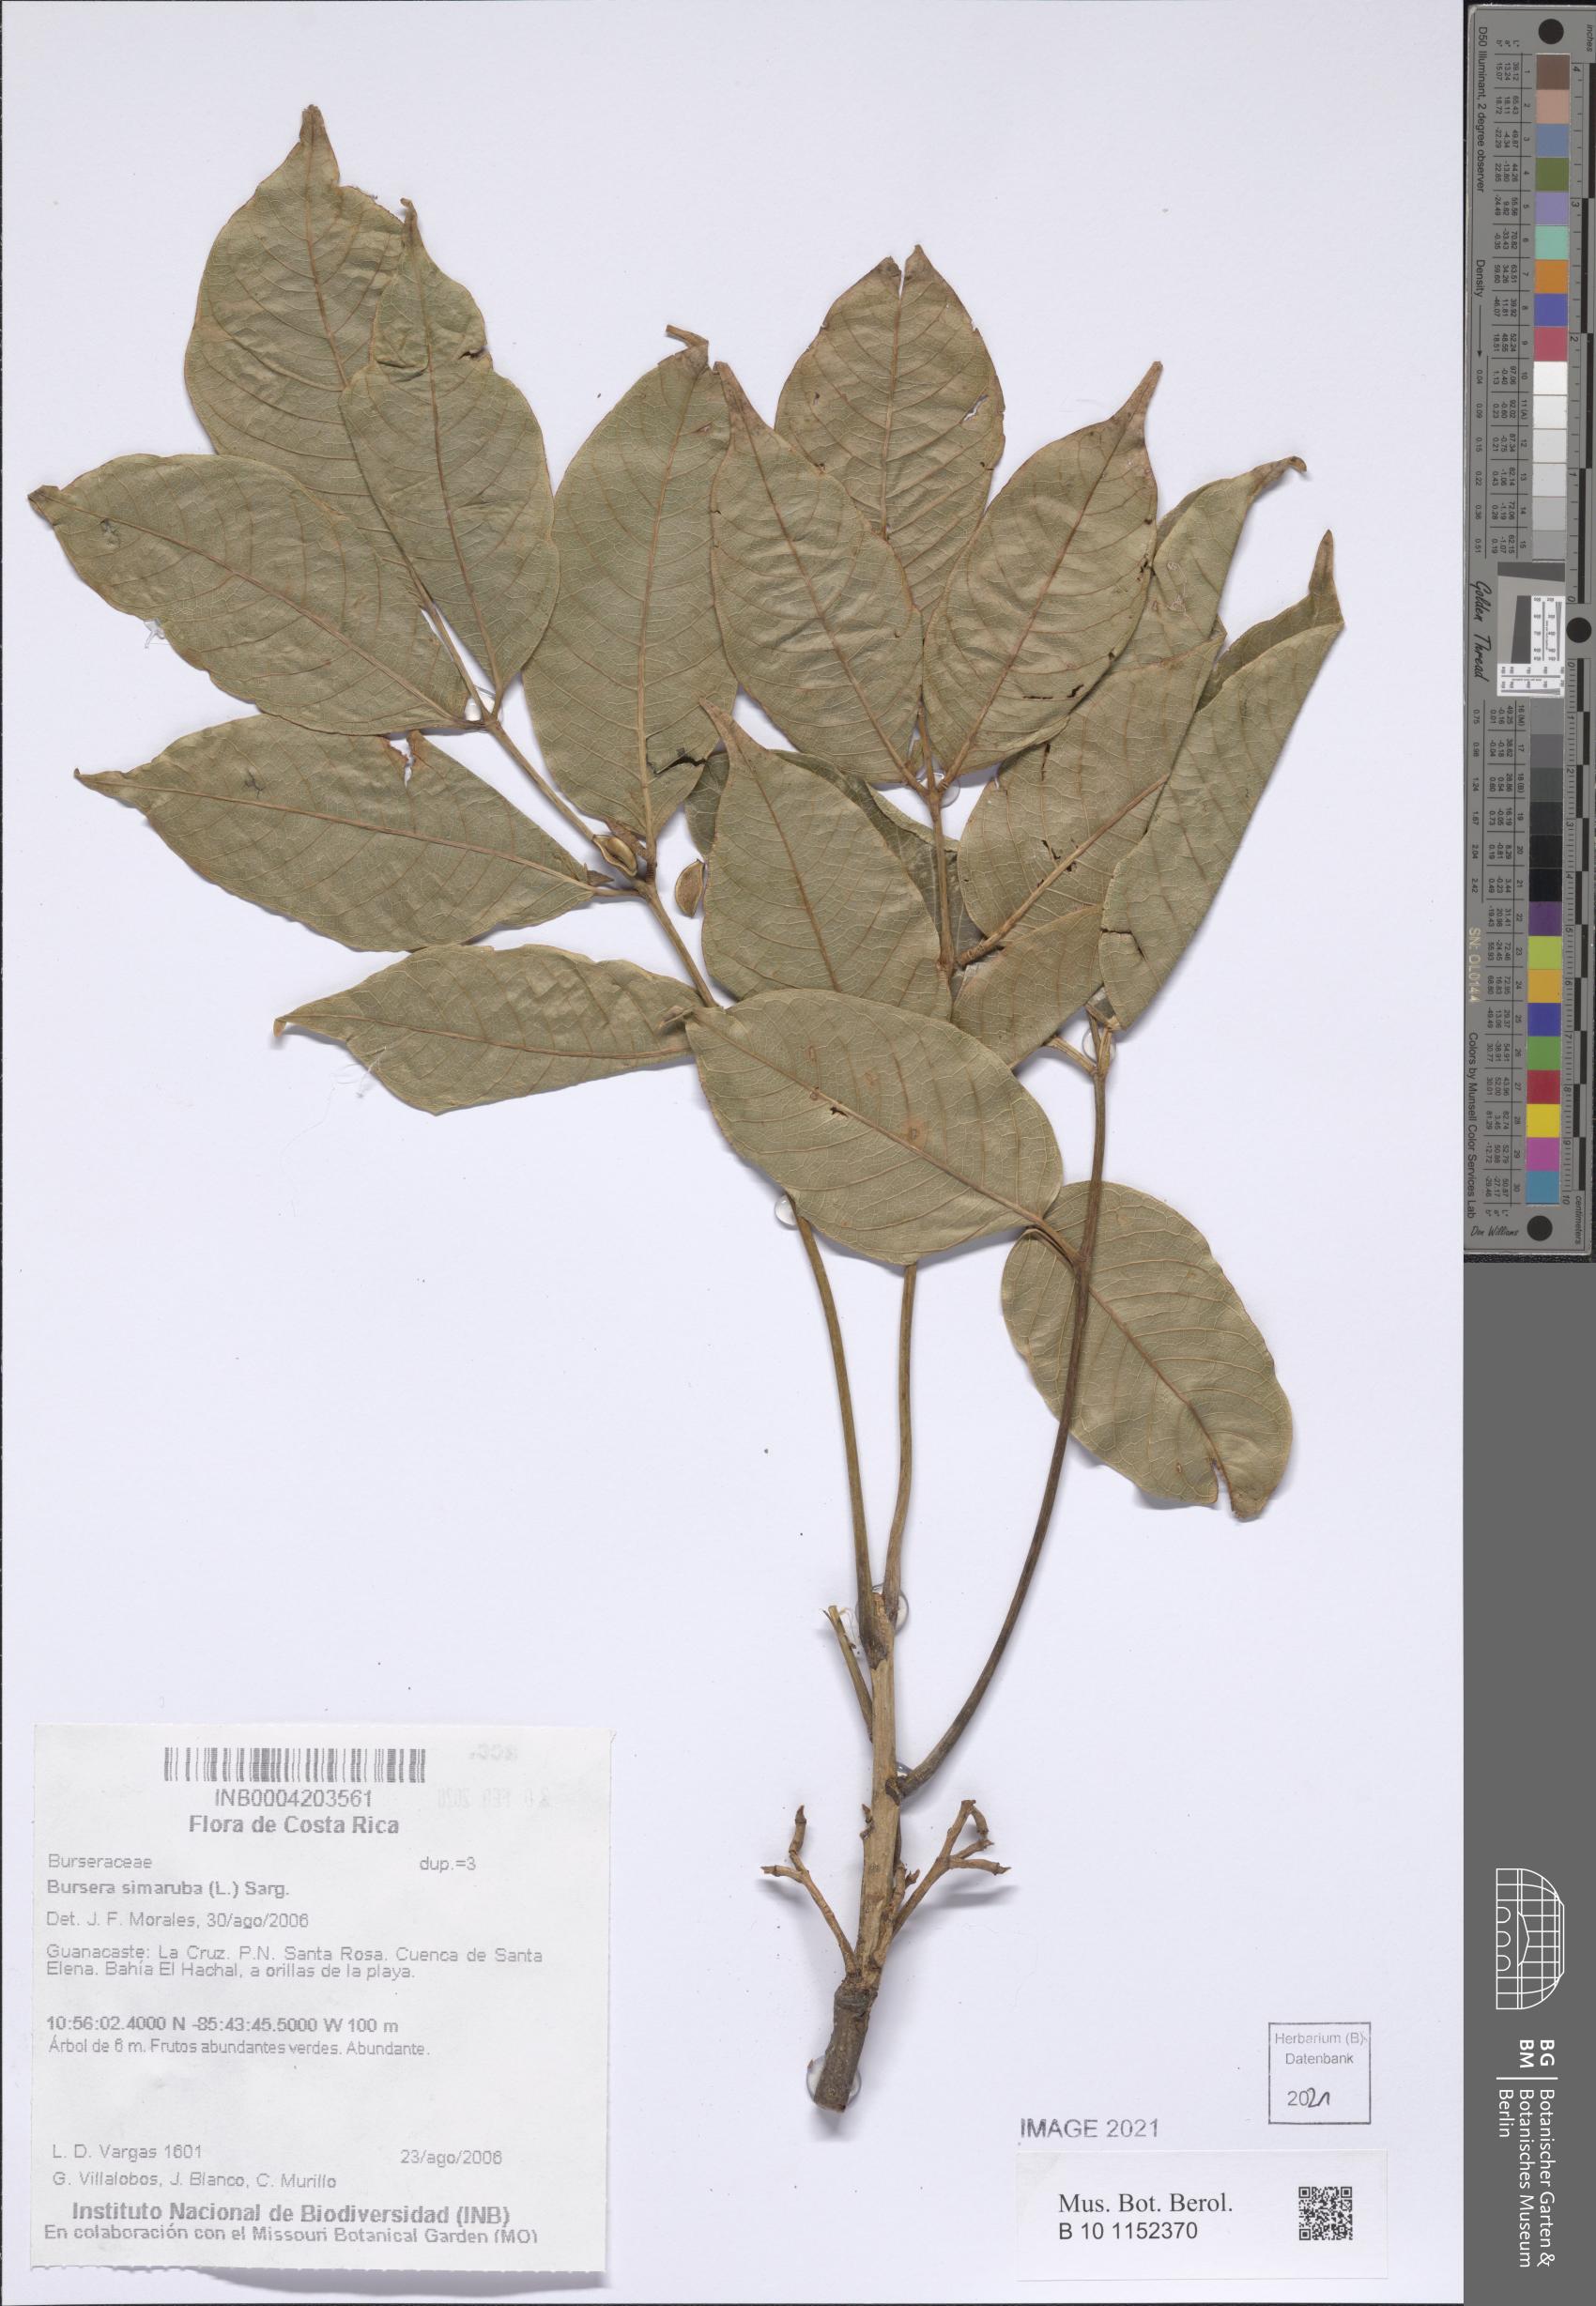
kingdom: Plantae
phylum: Tracheophyta
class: Magnoliopsida
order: Sapindales
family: Burseraceae
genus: Bursera
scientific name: Bursera simaruba
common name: Turpentine tree
